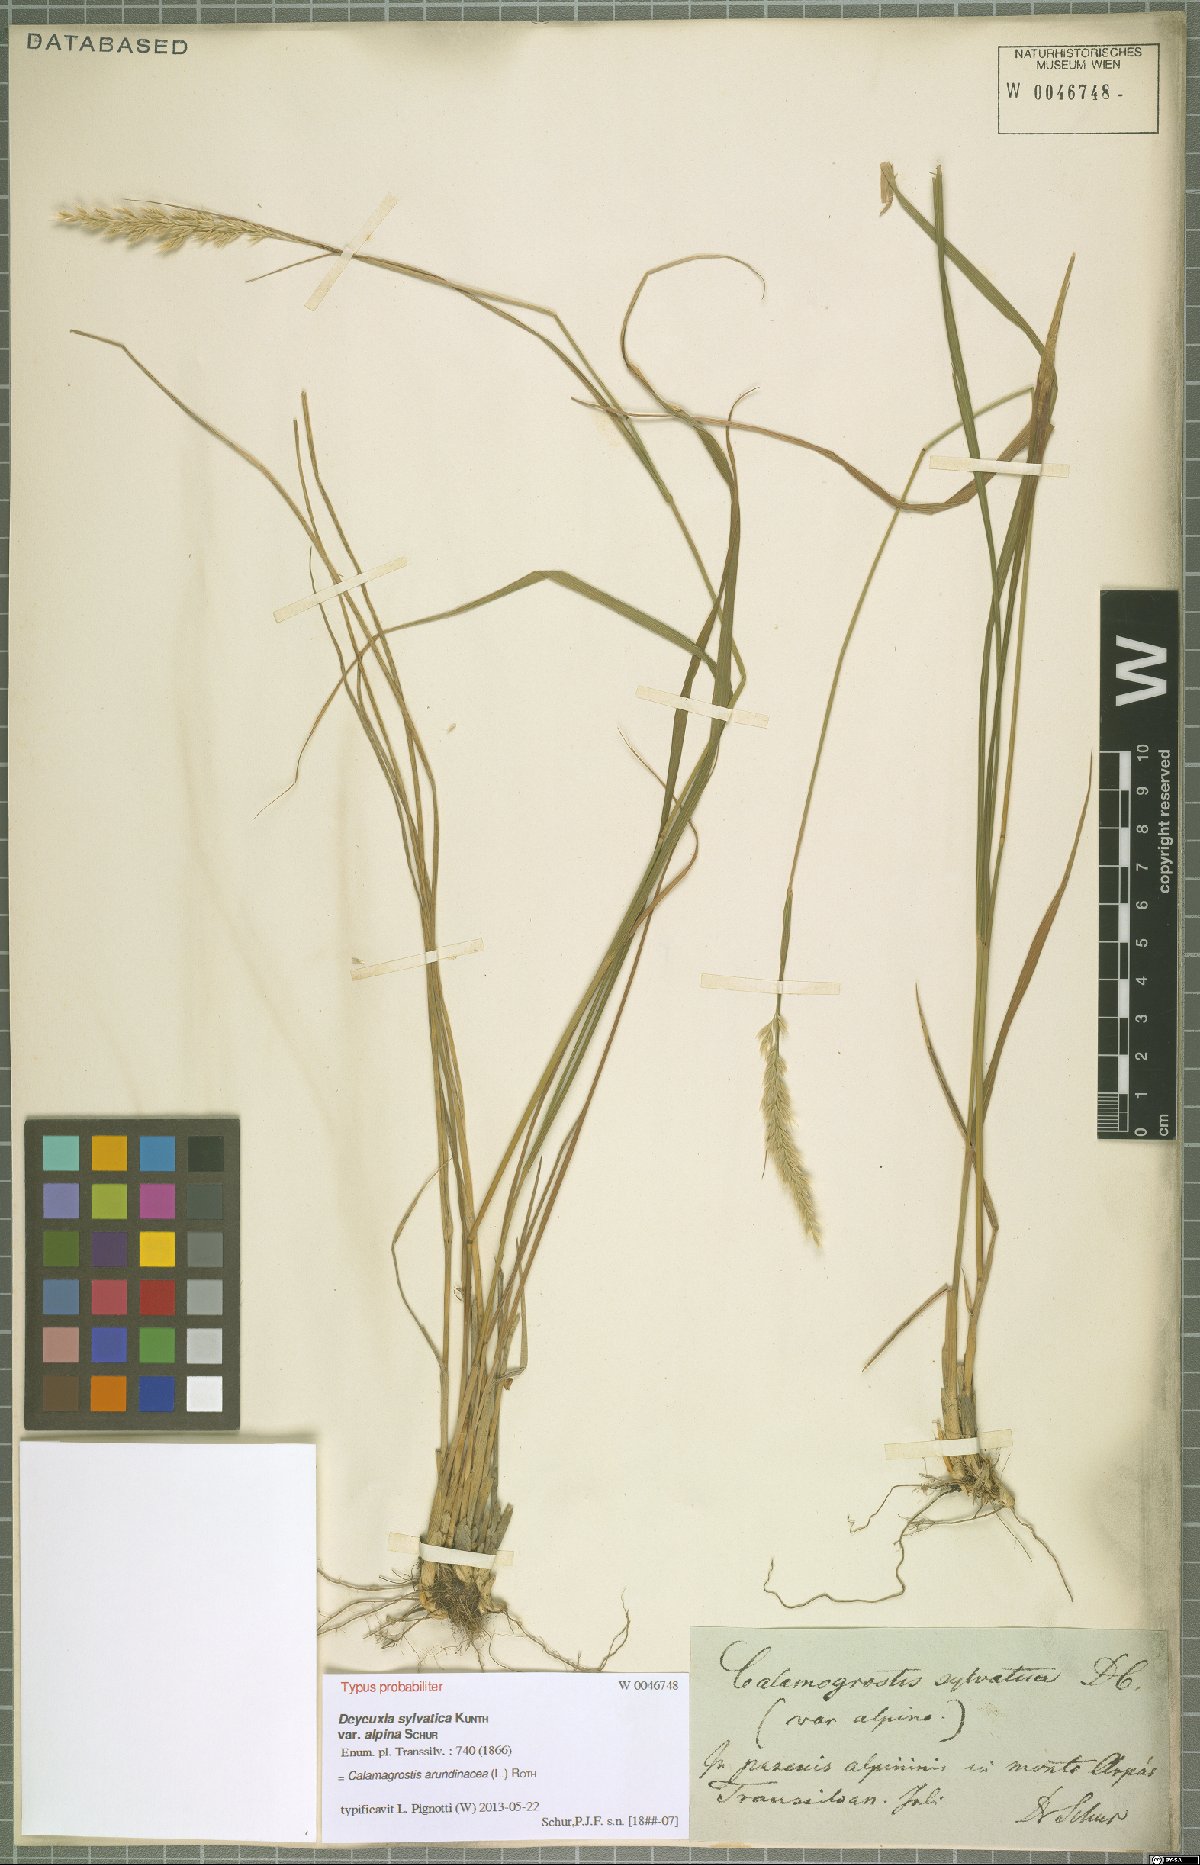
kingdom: Plantae
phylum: Tracheophyta
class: Liliopsida
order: Poales
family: Poaceae
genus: Calamagrostis
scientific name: Calamagrostis arundinacea
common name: Metskastik
